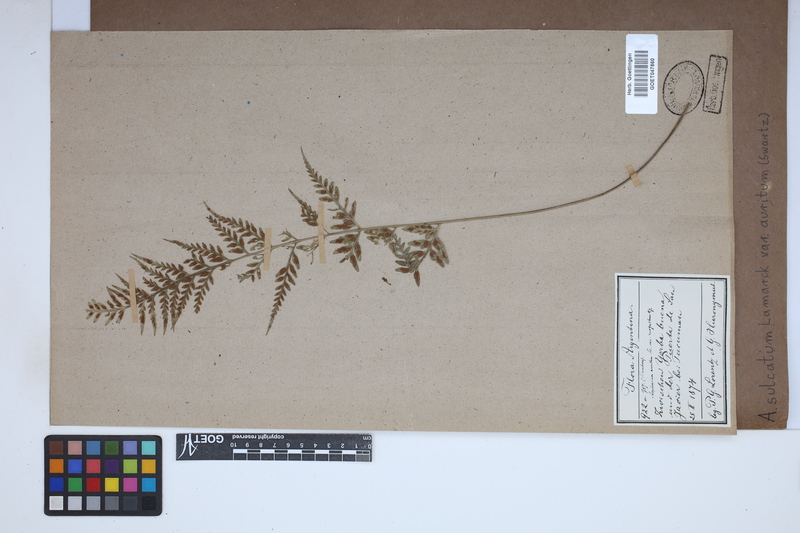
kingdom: Plantae
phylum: Tracheophyta
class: Polypodiopsida
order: Polypodiales
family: Aspleniaceae
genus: Asplenium
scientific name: Asplenium auritum
